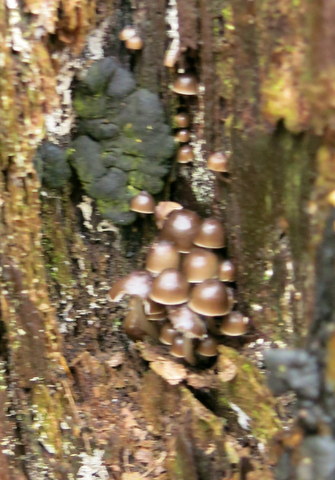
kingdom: Fungi
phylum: Basidiomycota
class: Agaricomycetes
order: Agaricales
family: Mycenaceae
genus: Mycena
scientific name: Mycena tintinnabulum
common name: vinter-huesvamp
